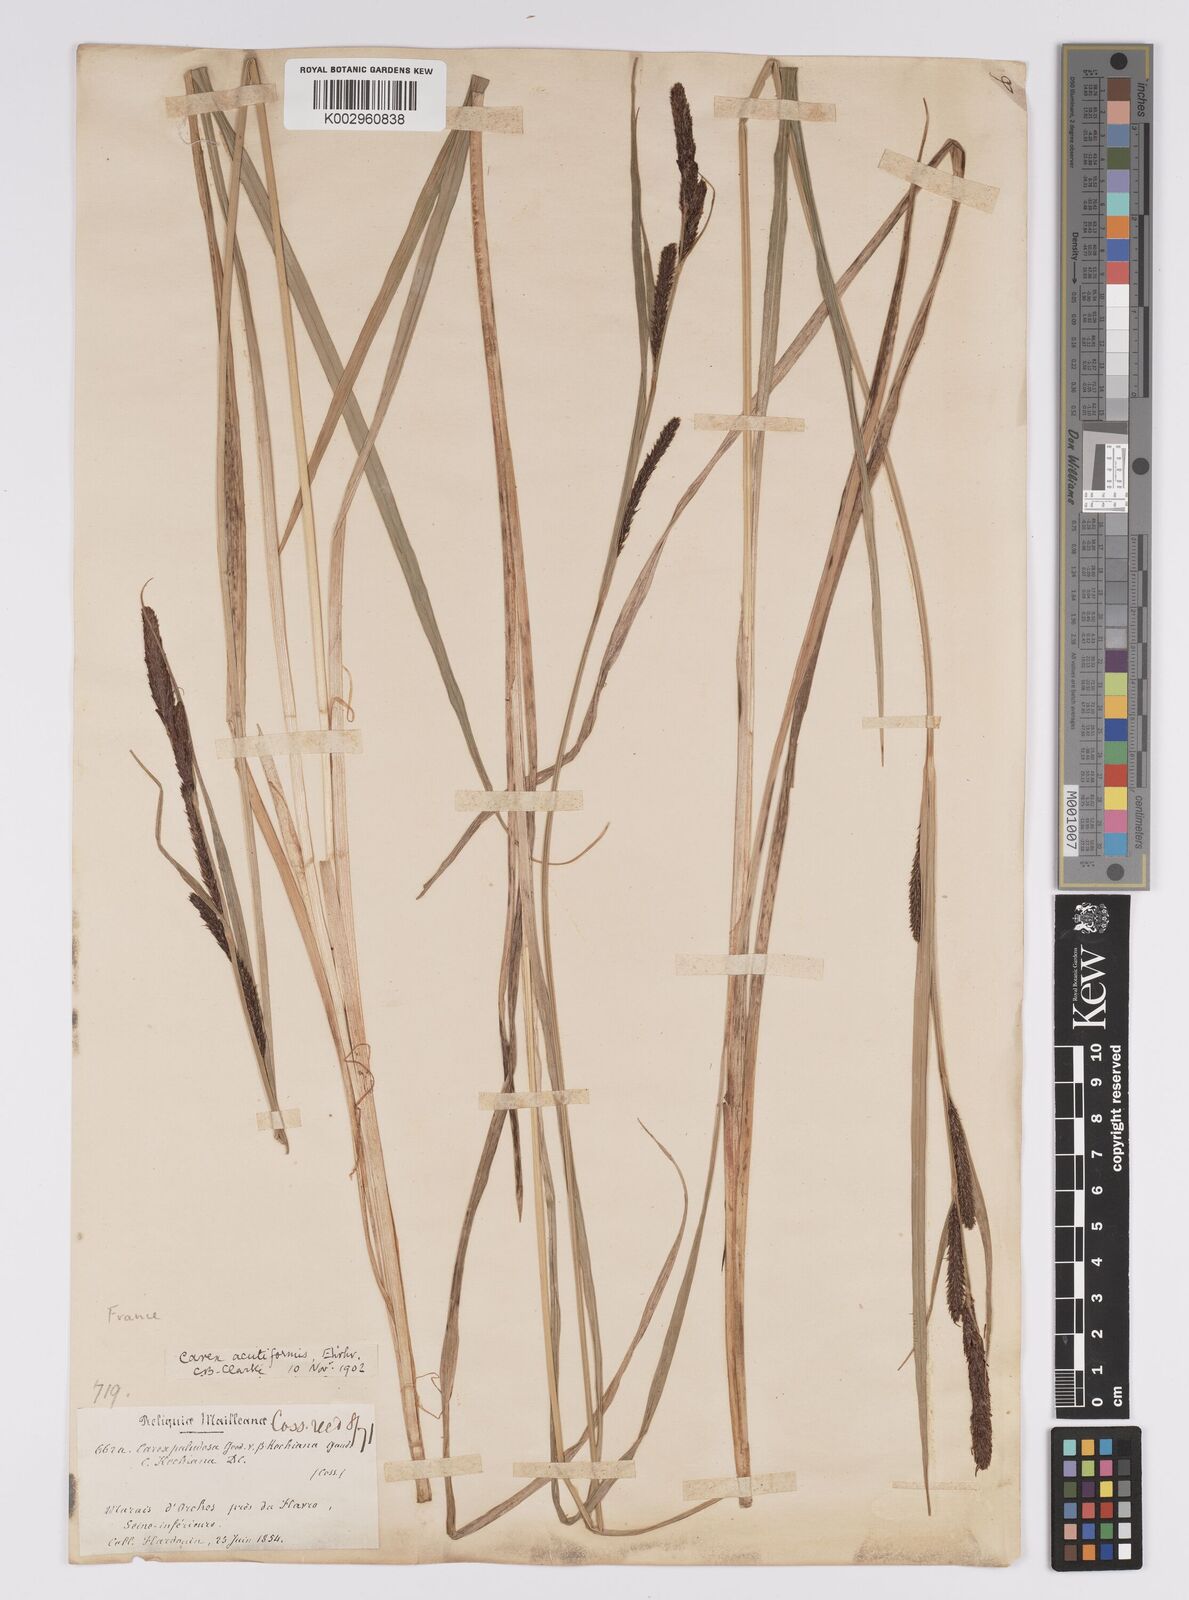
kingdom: Plantae
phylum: Tracheophyta
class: Liliopsida
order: Poales
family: Cyperaceae
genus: Carex
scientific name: Carex acutiformis
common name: Lesser pond-sedge
